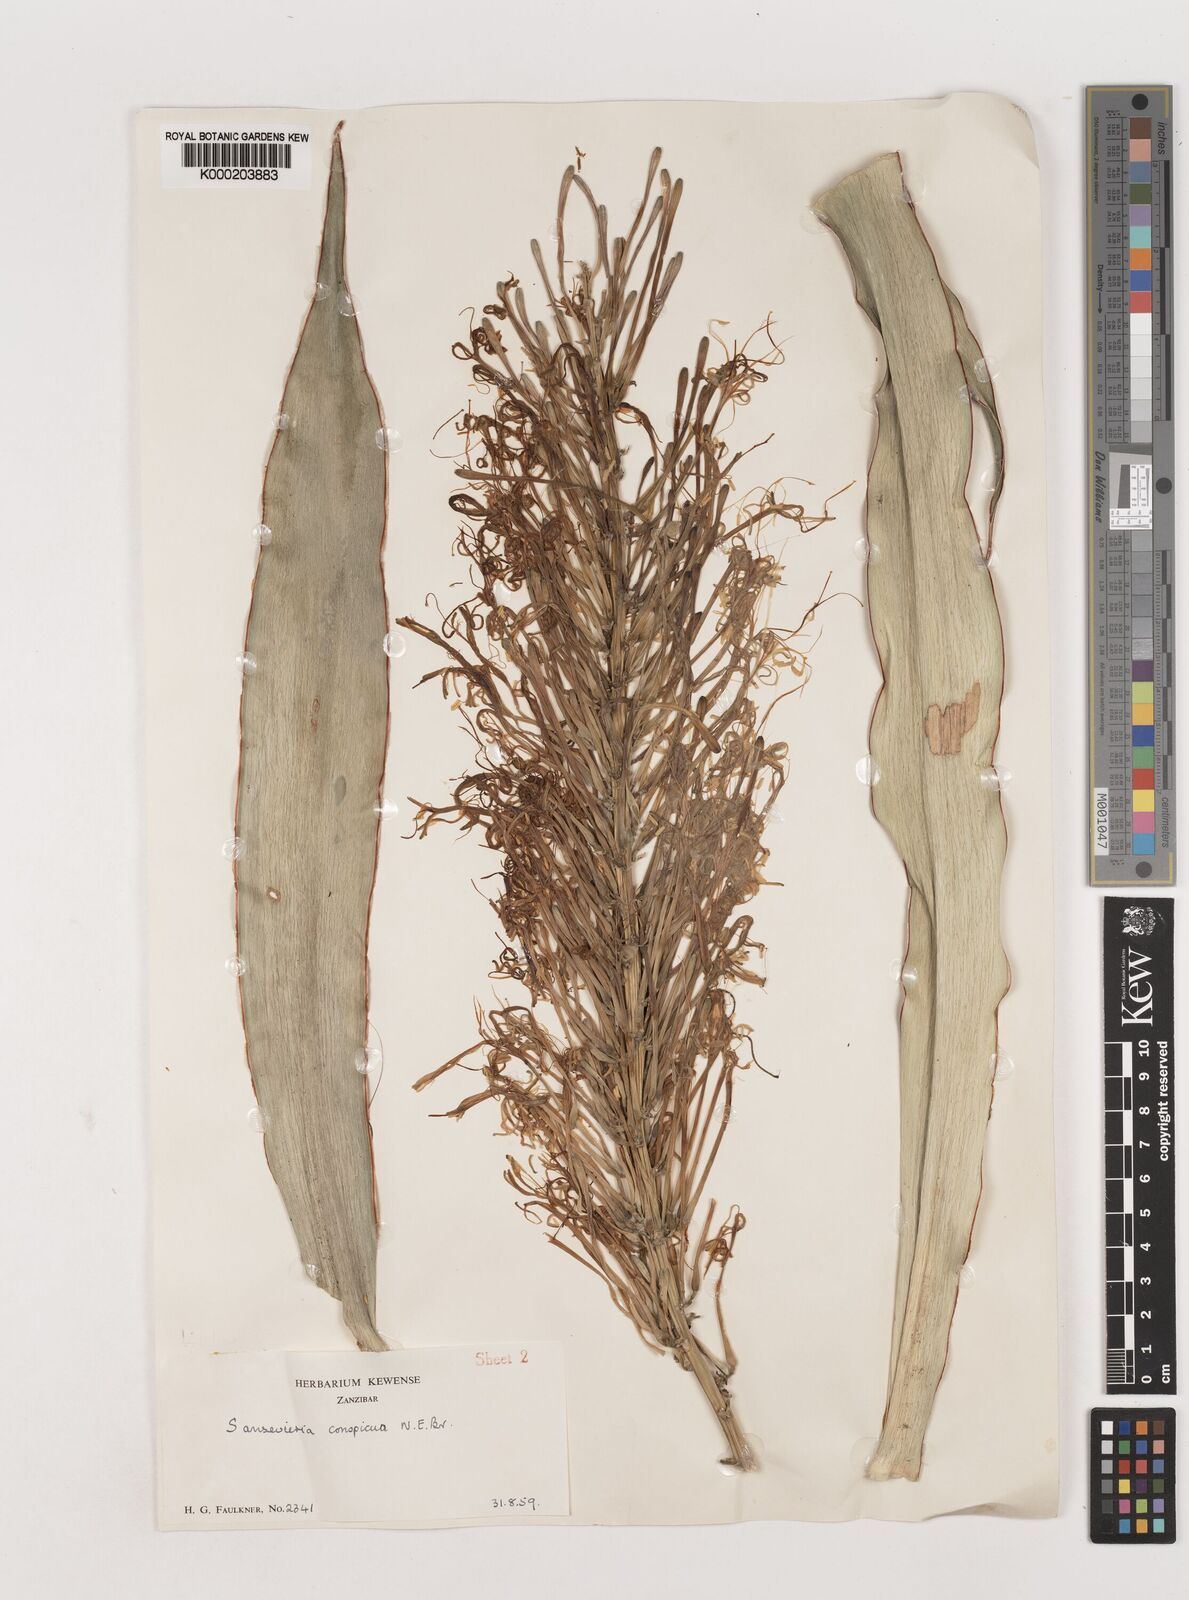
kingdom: Plantae
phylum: Tracheophyta
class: Liliopsida
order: Asparagales
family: Asparagaceae
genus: Dracaena
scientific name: Dracaena conspicua
